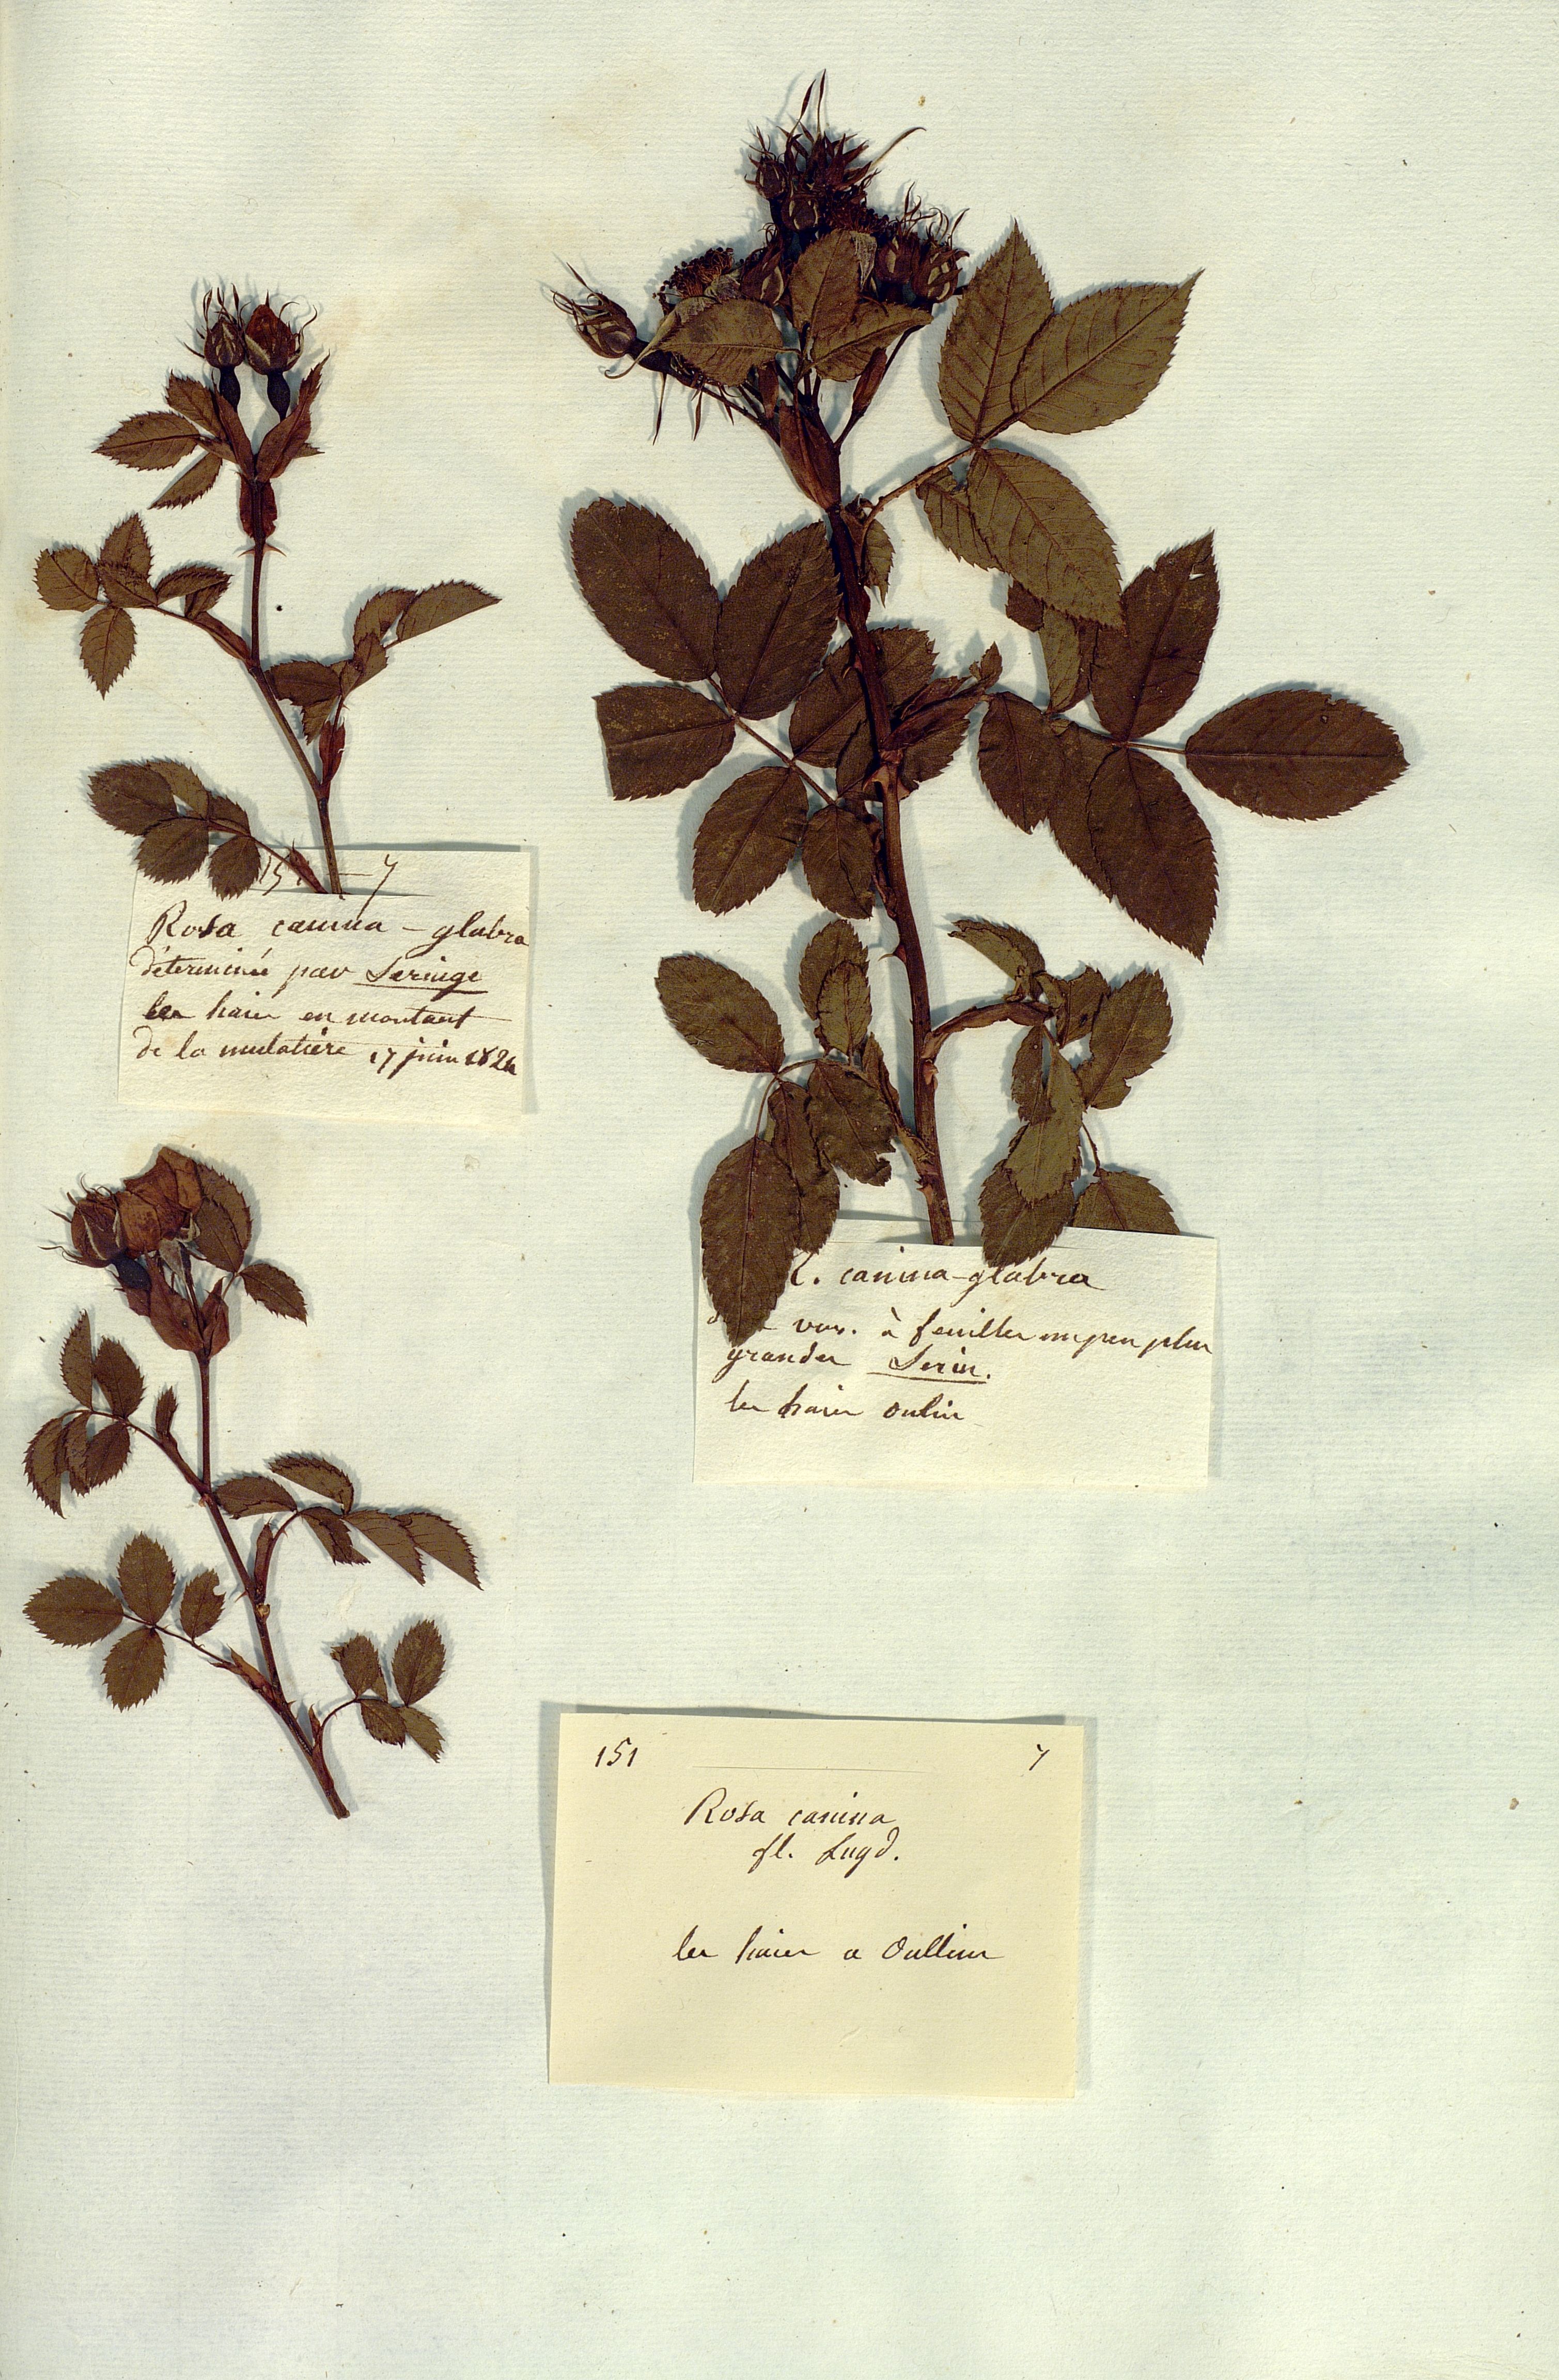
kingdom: Plantae
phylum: Tracheophyta
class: Magnoliopsida
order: Rosales
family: Rosaceae
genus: Rosa
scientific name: Rosa canina
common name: Dog rose
